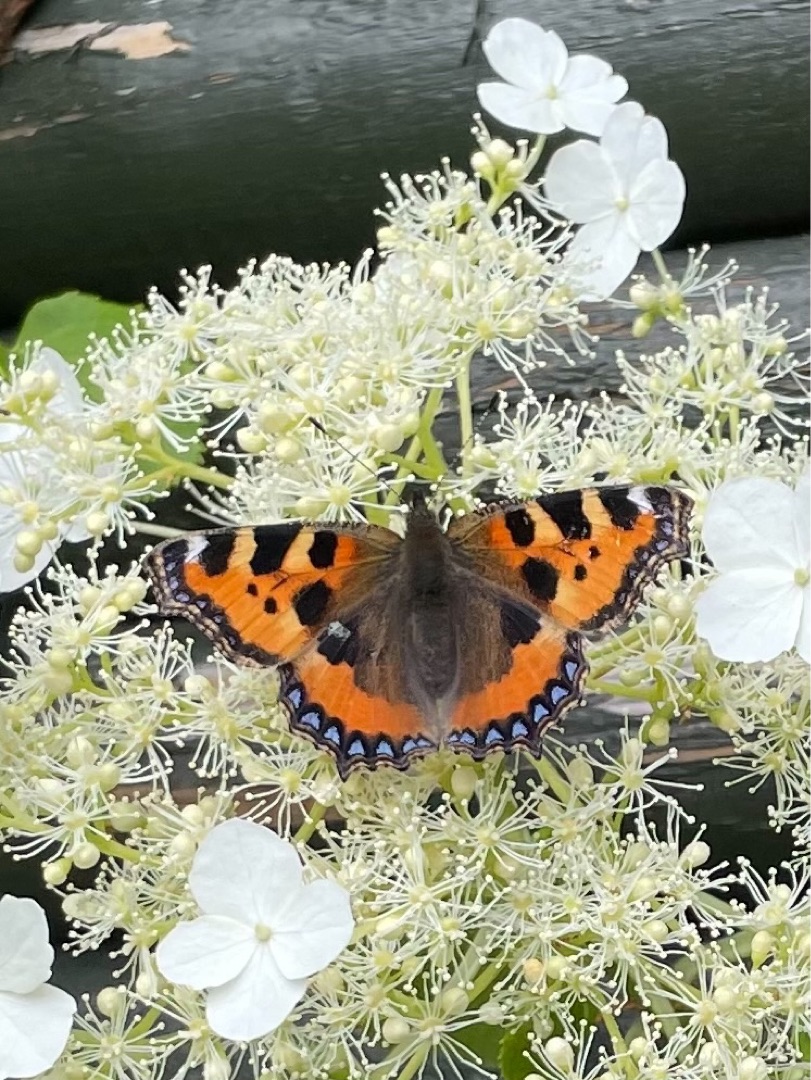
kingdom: Animalia
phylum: Arthropoda
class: Insecta
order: Lepidoptera
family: Nymphalidae
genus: Aglais
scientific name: Aglais urticae
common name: Nældens takvinge
